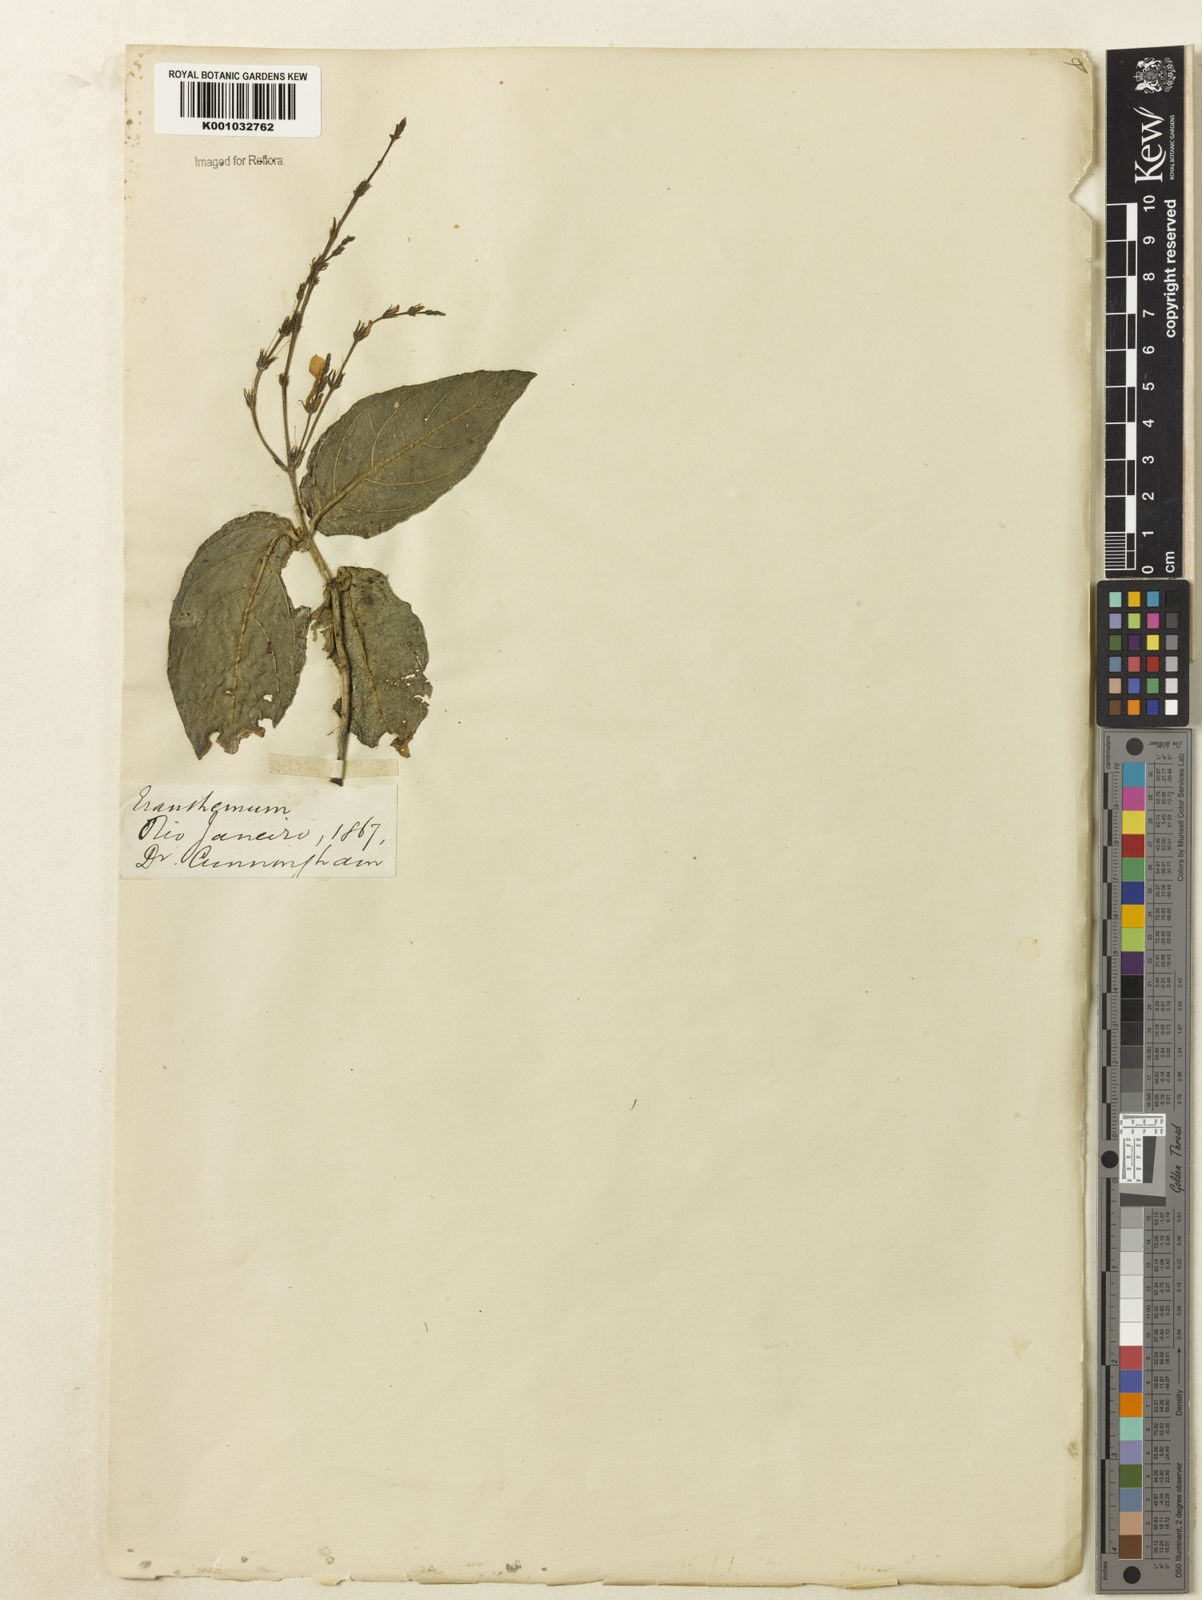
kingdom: Plantae
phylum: Tracheophyta
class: Magnoliopsida
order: Lamiales
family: Acanthaceae
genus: Pseuderanthemum
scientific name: Pseuderanthemum
